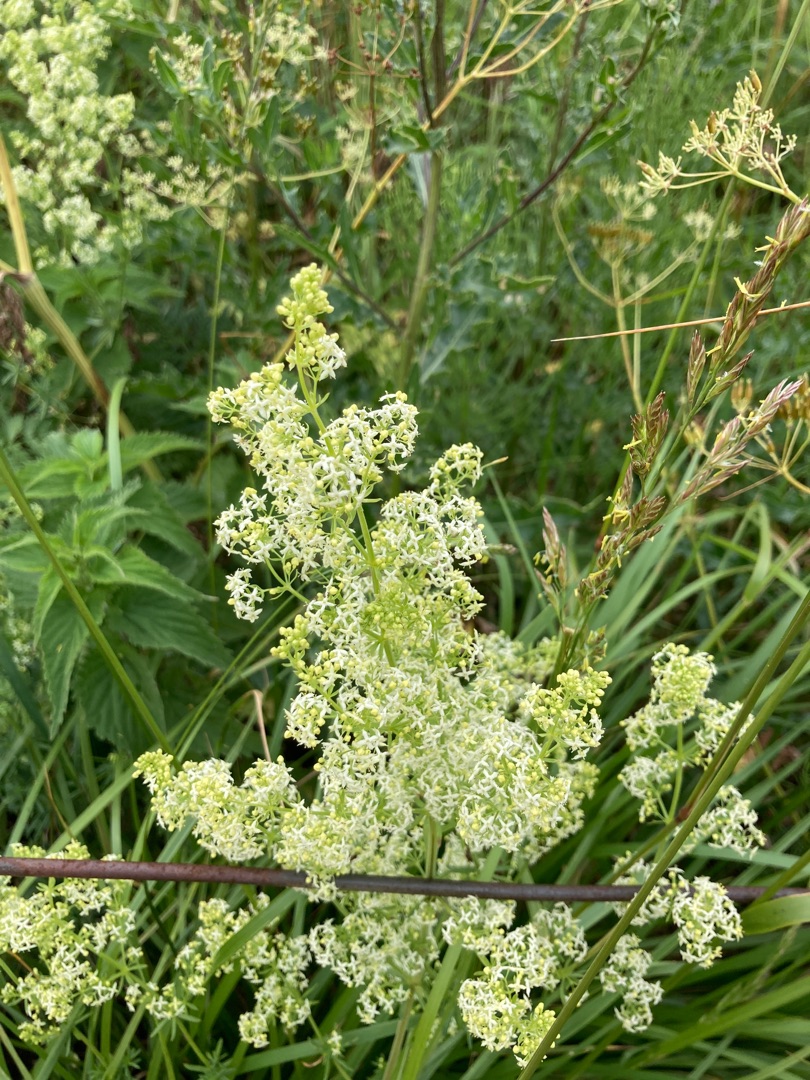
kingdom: Plantae
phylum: Tracheophyta
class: Magnoliopsida
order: Gentianales
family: Rubiaceae
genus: Galium
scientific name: Galium mollugo
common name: Hvid snerre
